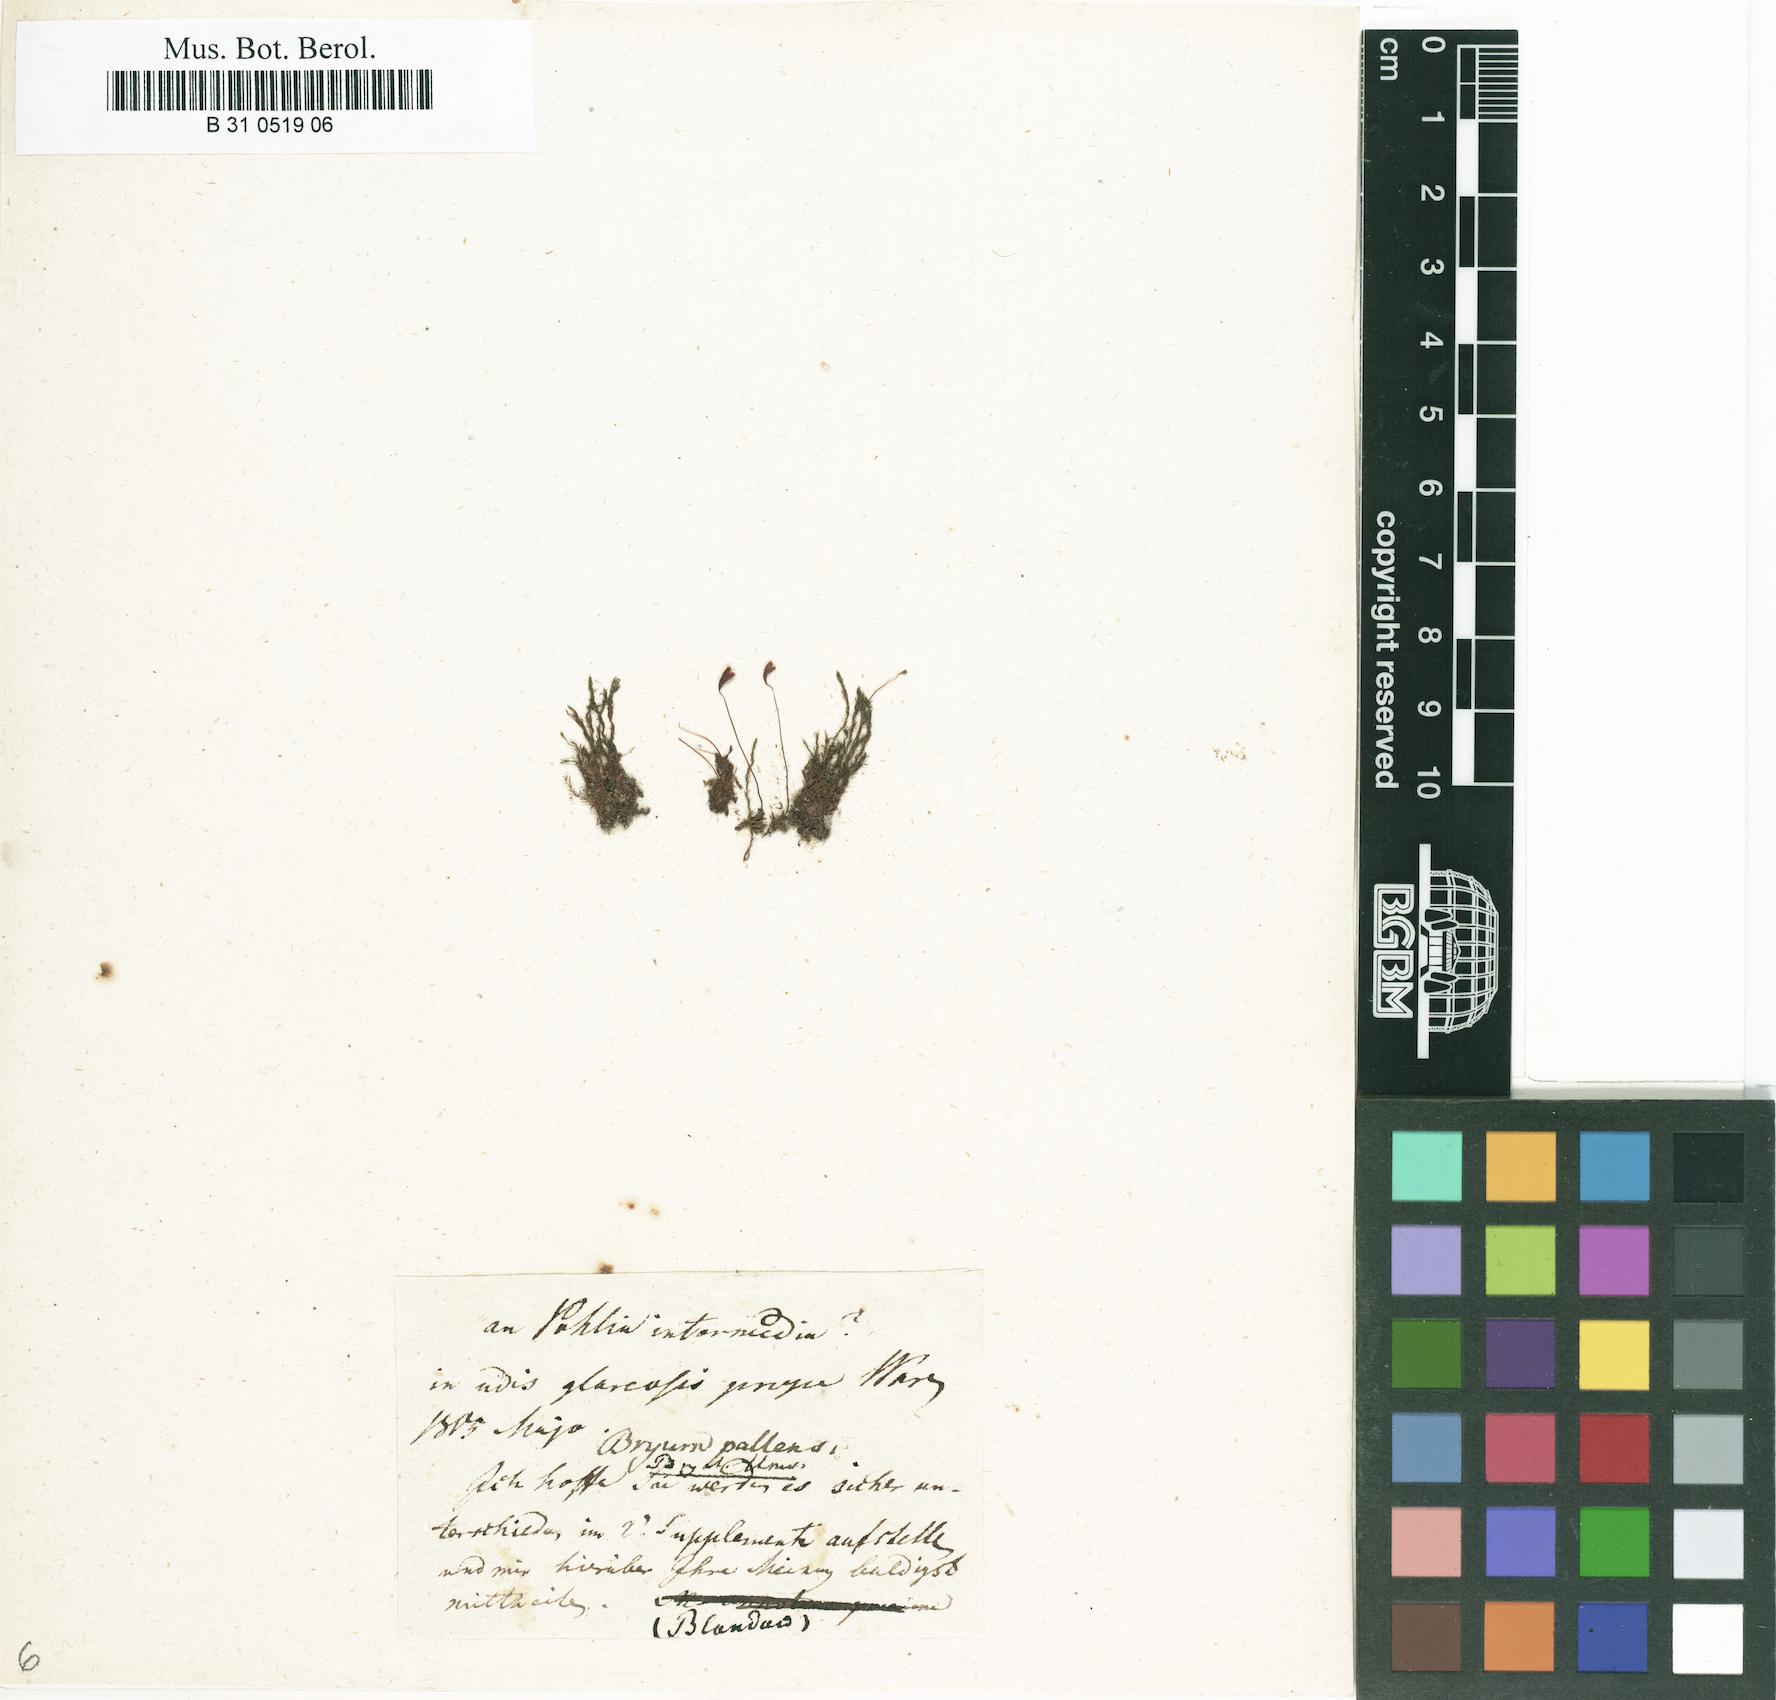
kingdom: Plantae
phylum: Bryophyta
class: Bryopsida
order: Bryales
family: Bryaceae
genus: Ptychostomum
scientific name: Ptychostomum pallens
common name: Pale thread-moss
